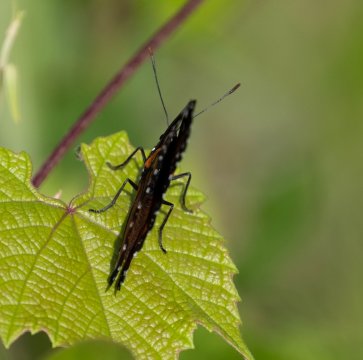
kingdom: Animalia
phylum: Arthropoda
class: Insecta
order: Lepidoptera
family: Nymphalidae
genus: Limenitis
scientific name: Limenitis archippus
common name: Viceroy
